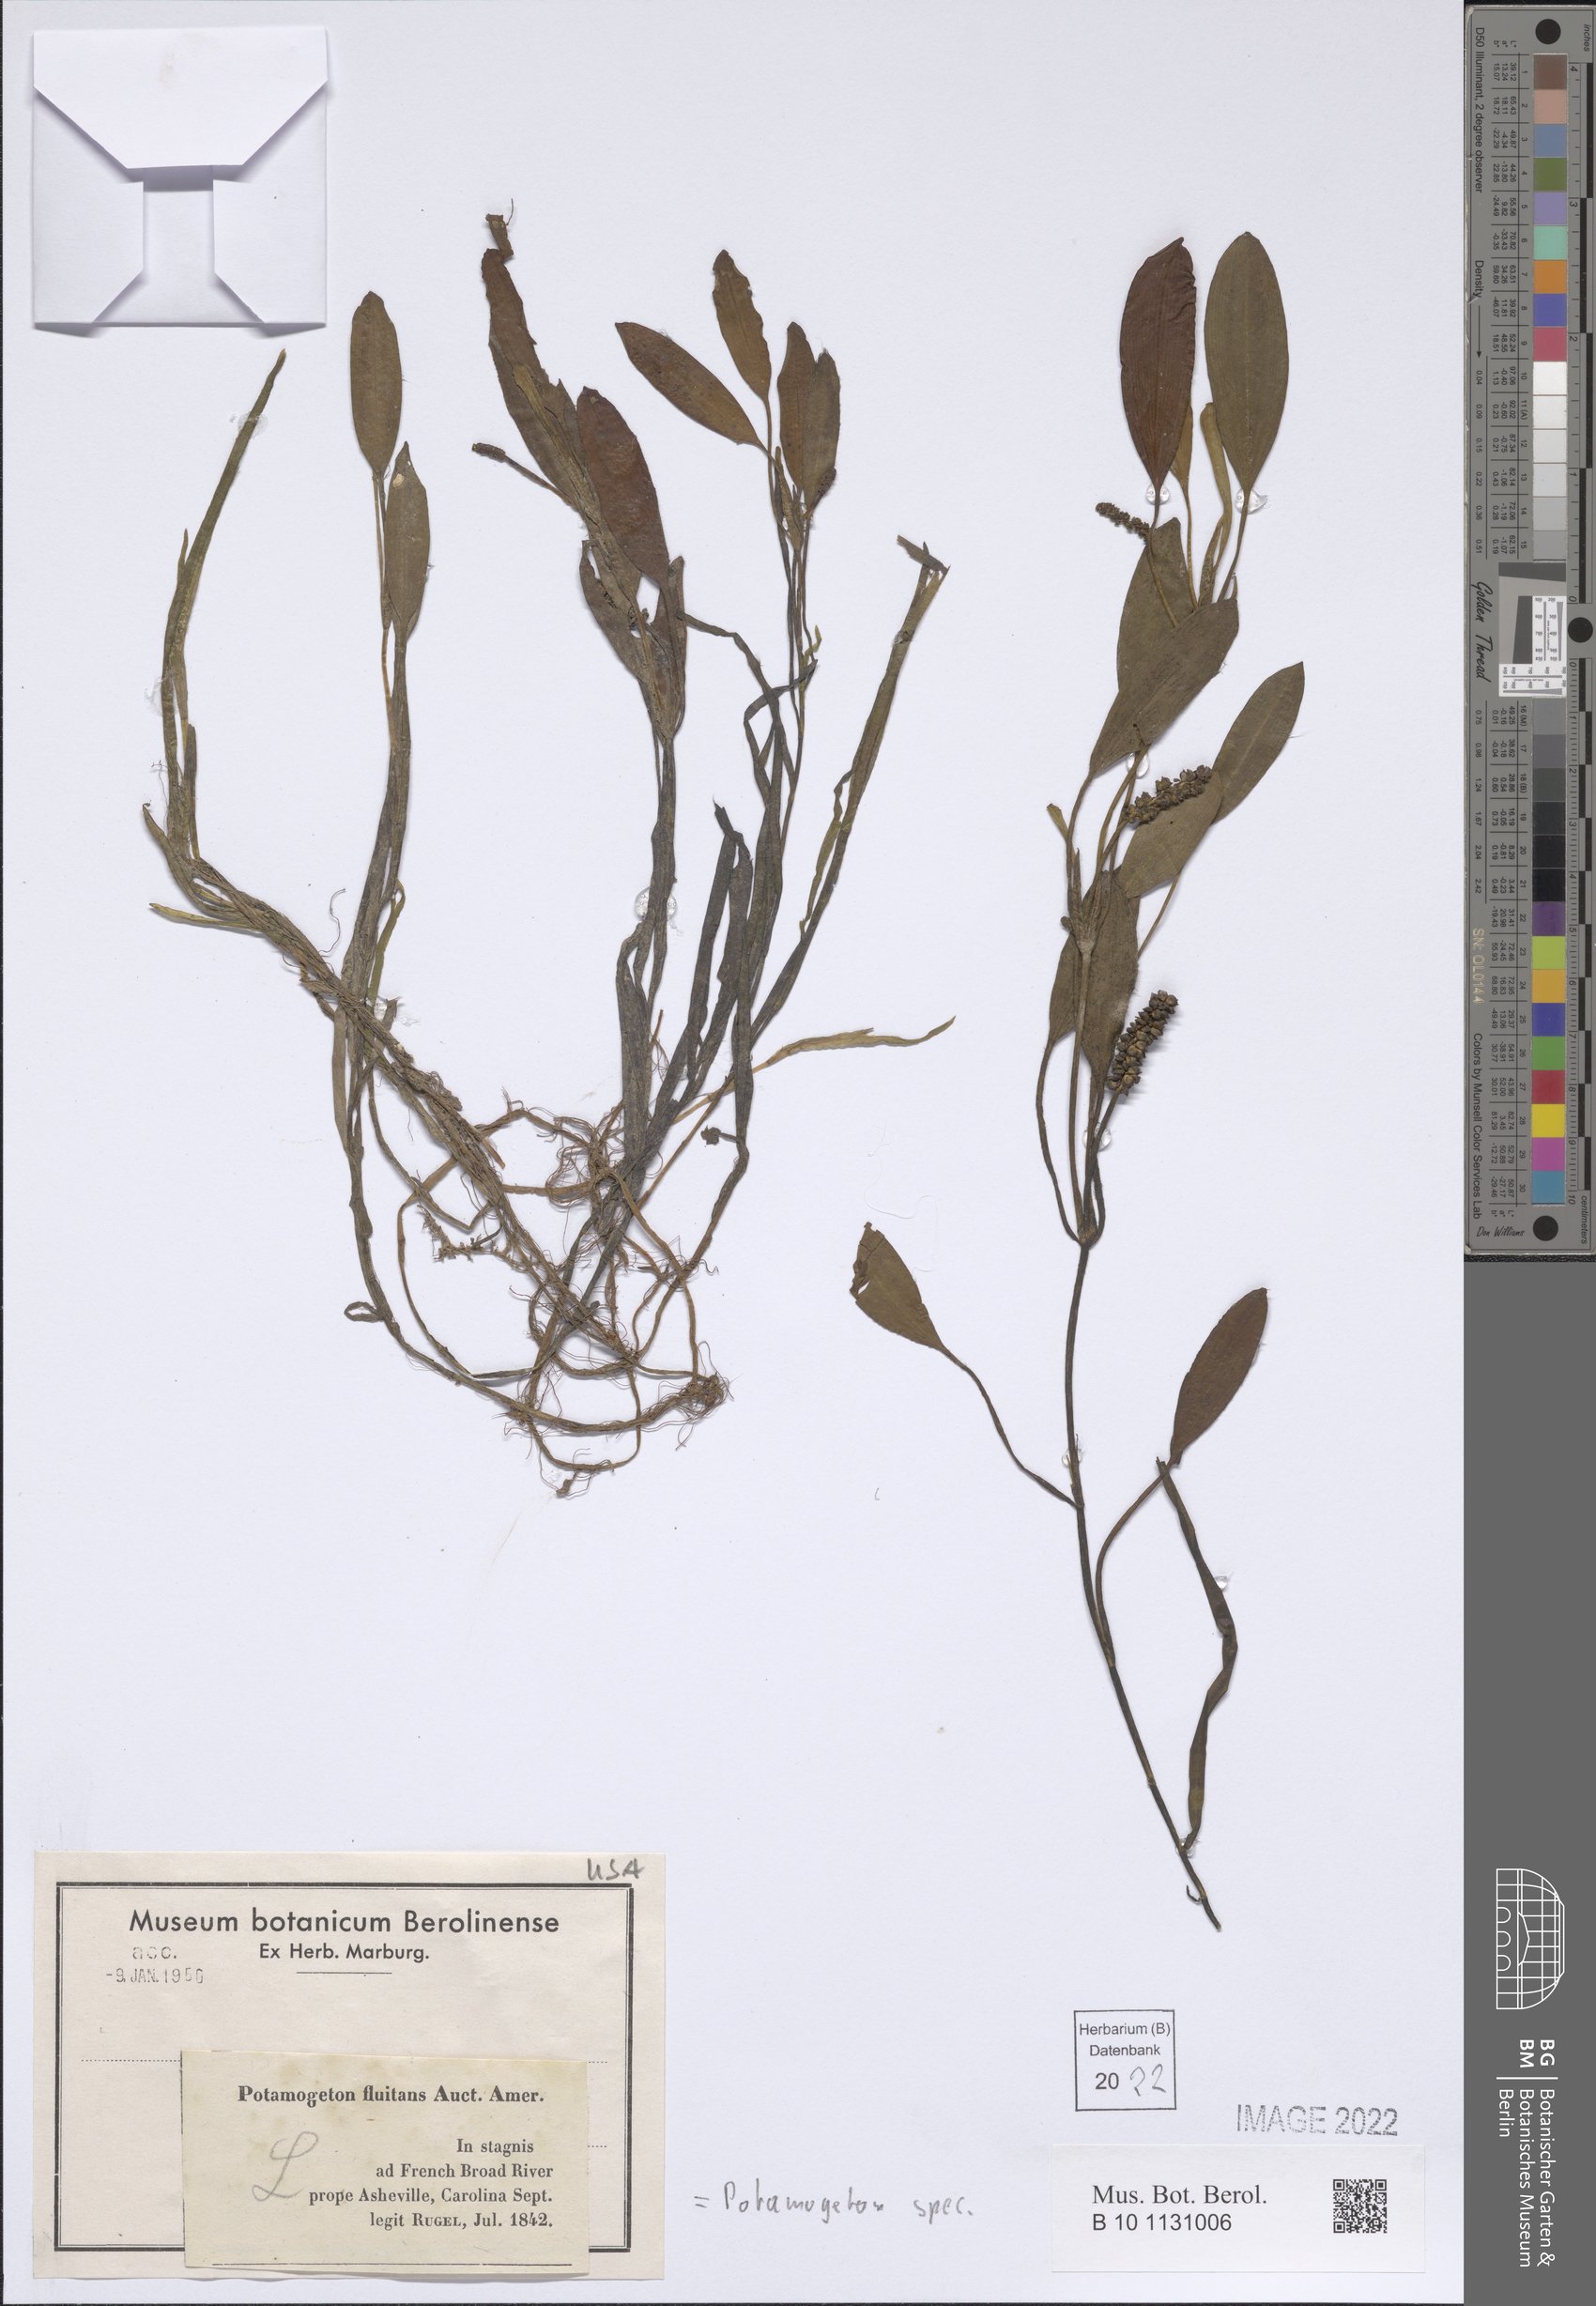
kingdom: Plantae
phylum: Tracheophyta
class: Liliopsida
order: Alismatales
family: Potamogetonaceae
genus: Potamogeton
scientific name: Potamogeton
